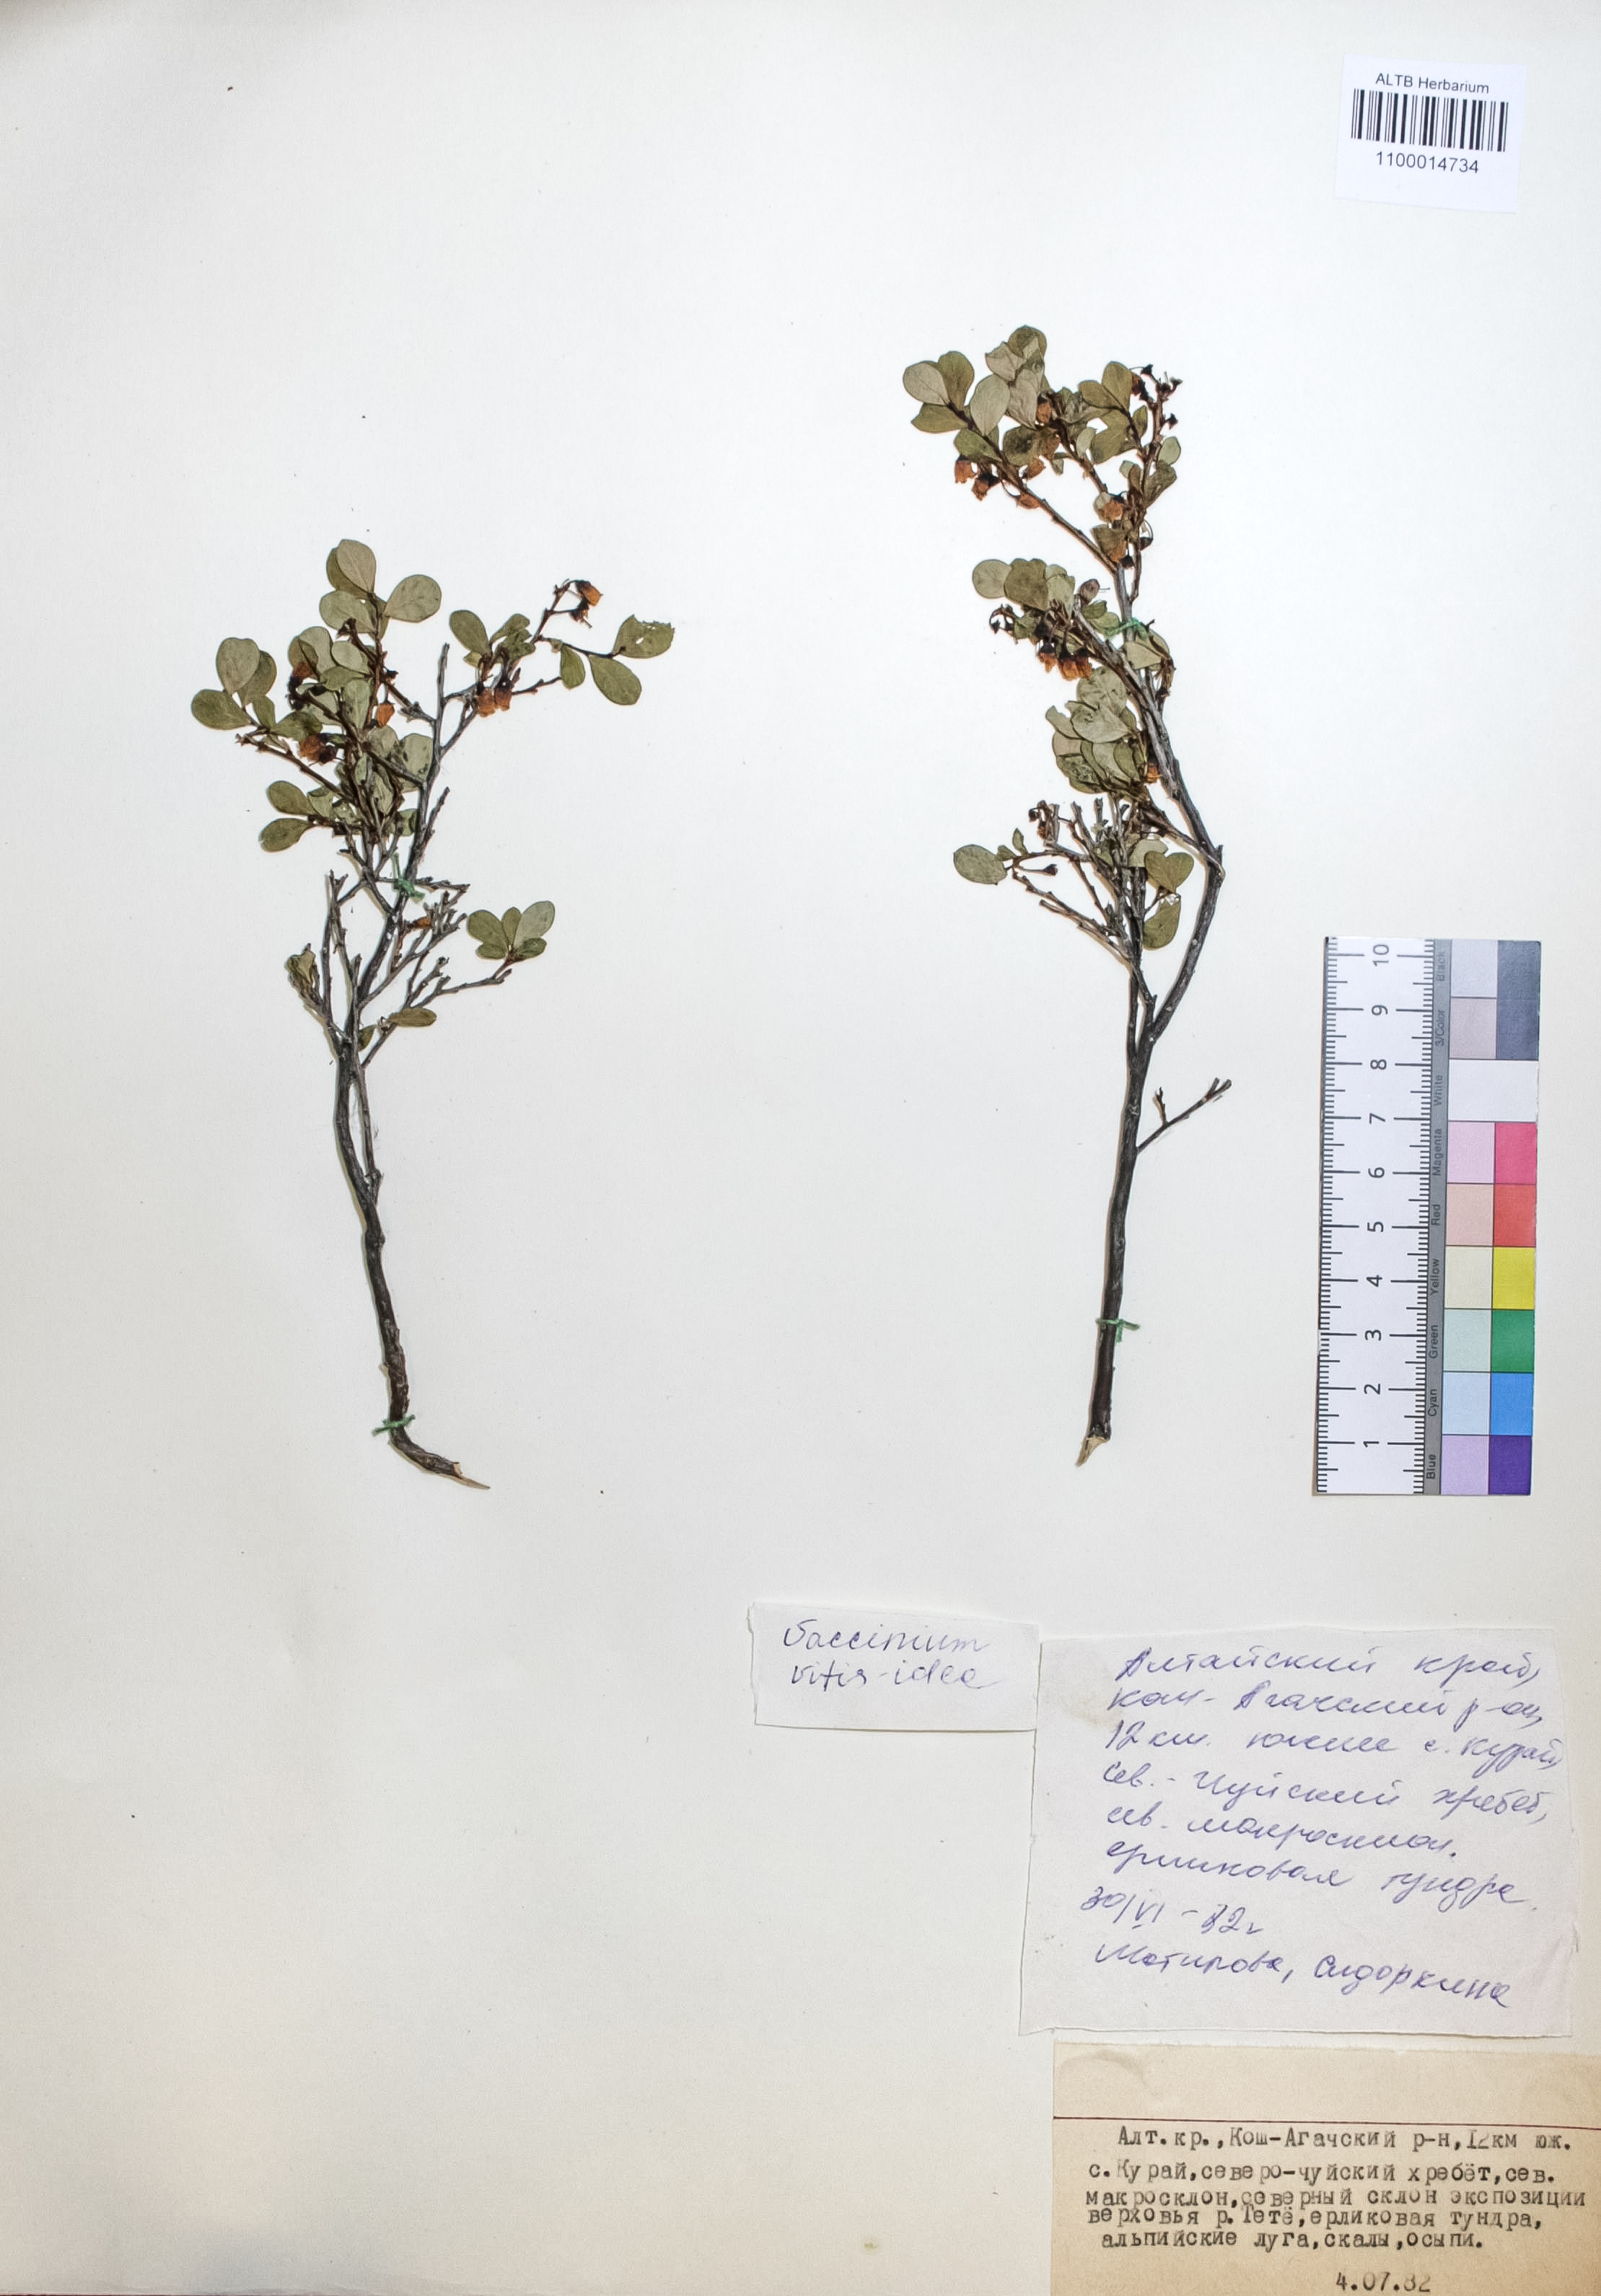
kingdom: Plantae
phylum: Tracheophyta
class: Magnoliopsida
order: Ericales
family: Ericaceae
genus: Vaccinium
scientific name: Vaccinium vitis-idaea
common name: Cowberry
